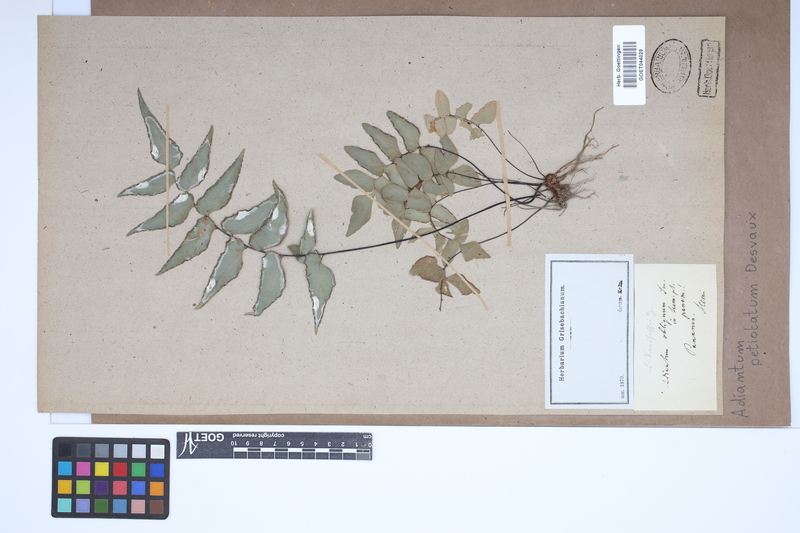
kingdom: Plantae
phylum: Tracheophyta
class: Polypodiopsida
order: Polypodiales
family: Pteridaceae
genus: Adiantum
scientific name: Adiantum petiolatum
